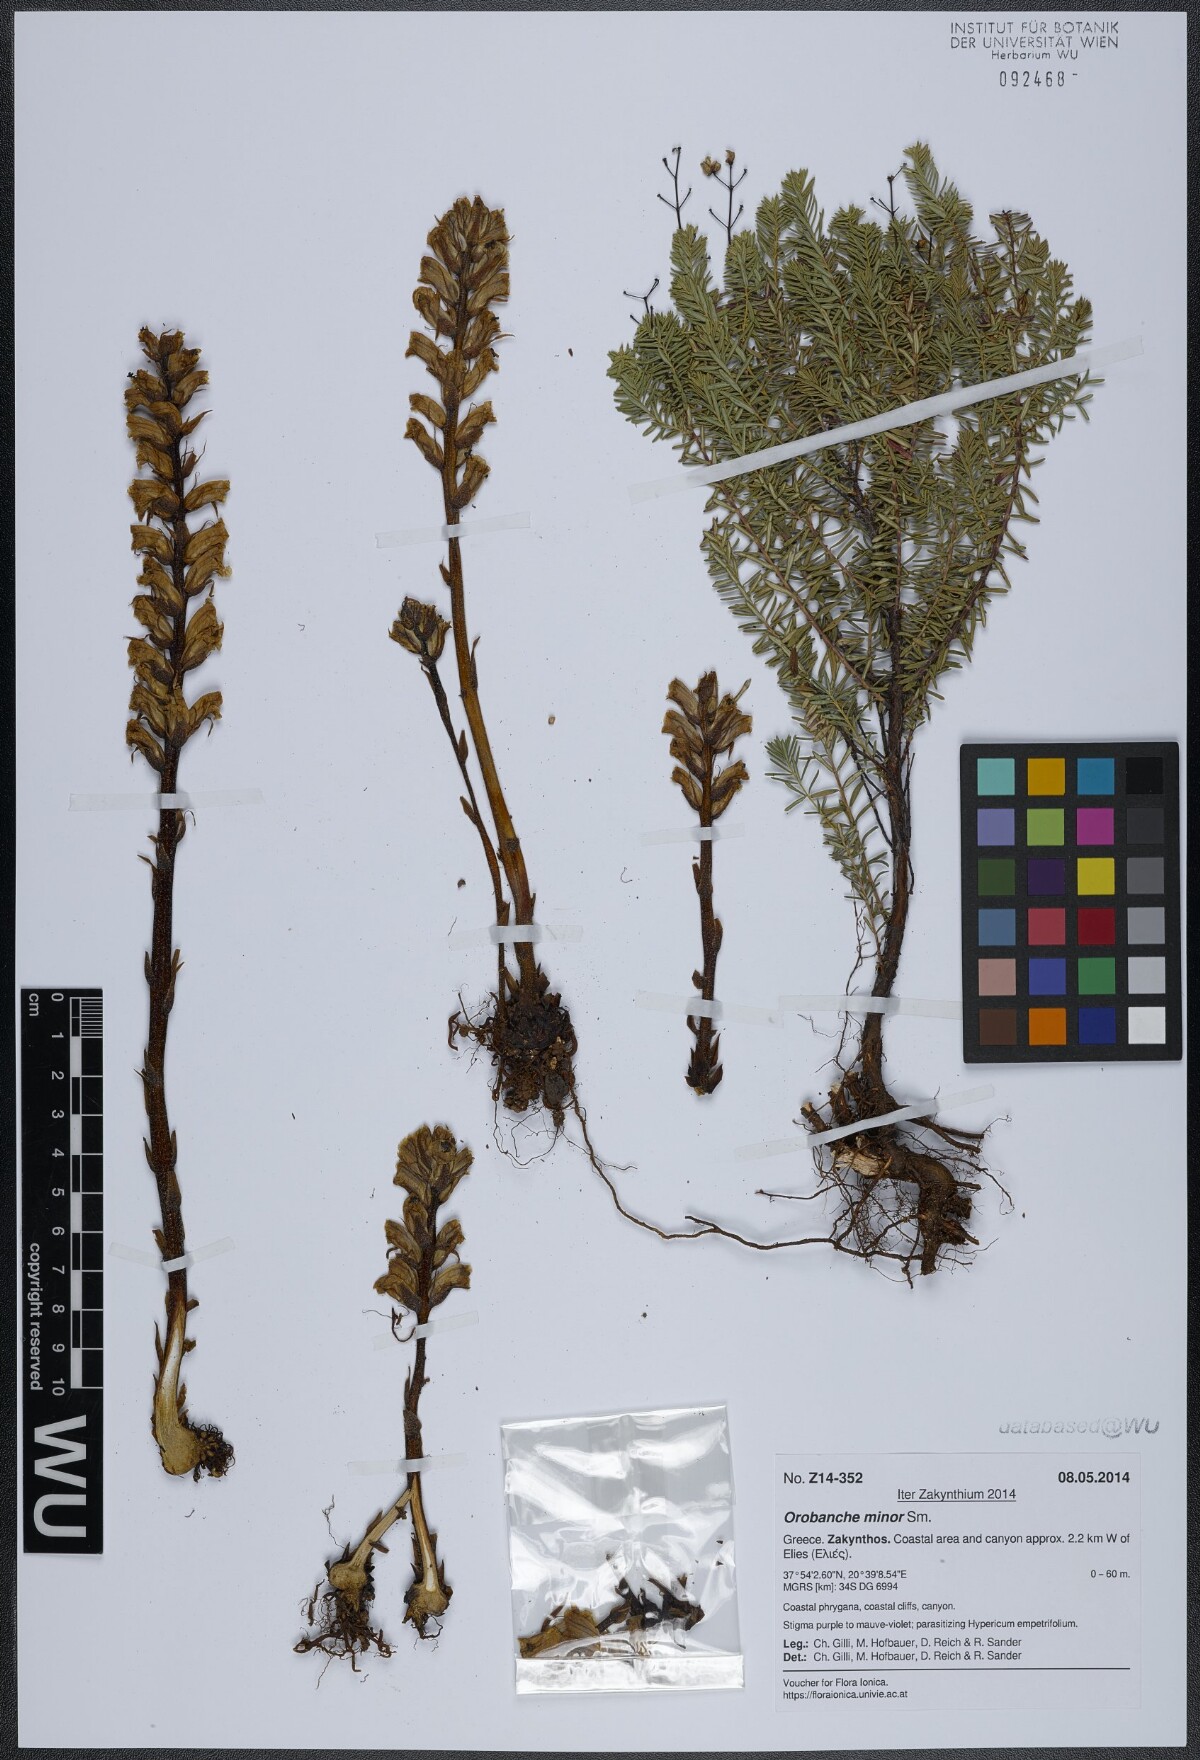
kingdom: Plantae
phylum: Tracheophyta
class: Magnoliopsida
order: Lamiales
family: Orobanchaceae
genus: Orobanche
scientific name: Orobanche grisebachii
